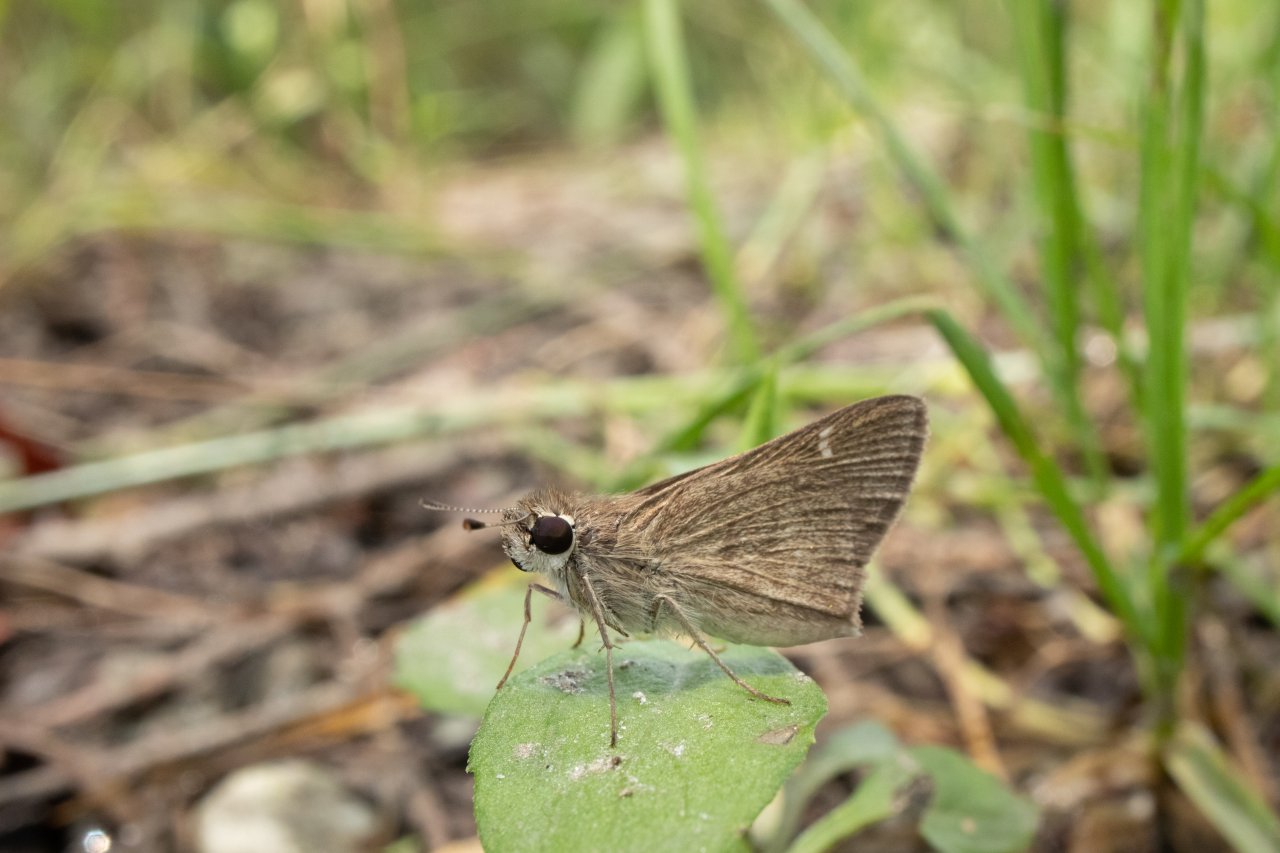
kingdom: Animalia
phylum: Arthropoda
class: Insecta
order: Lepidoptera
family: Hesperiidae
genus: Lerodea
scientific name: Lerodea eufala
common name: Eufala Skipper
